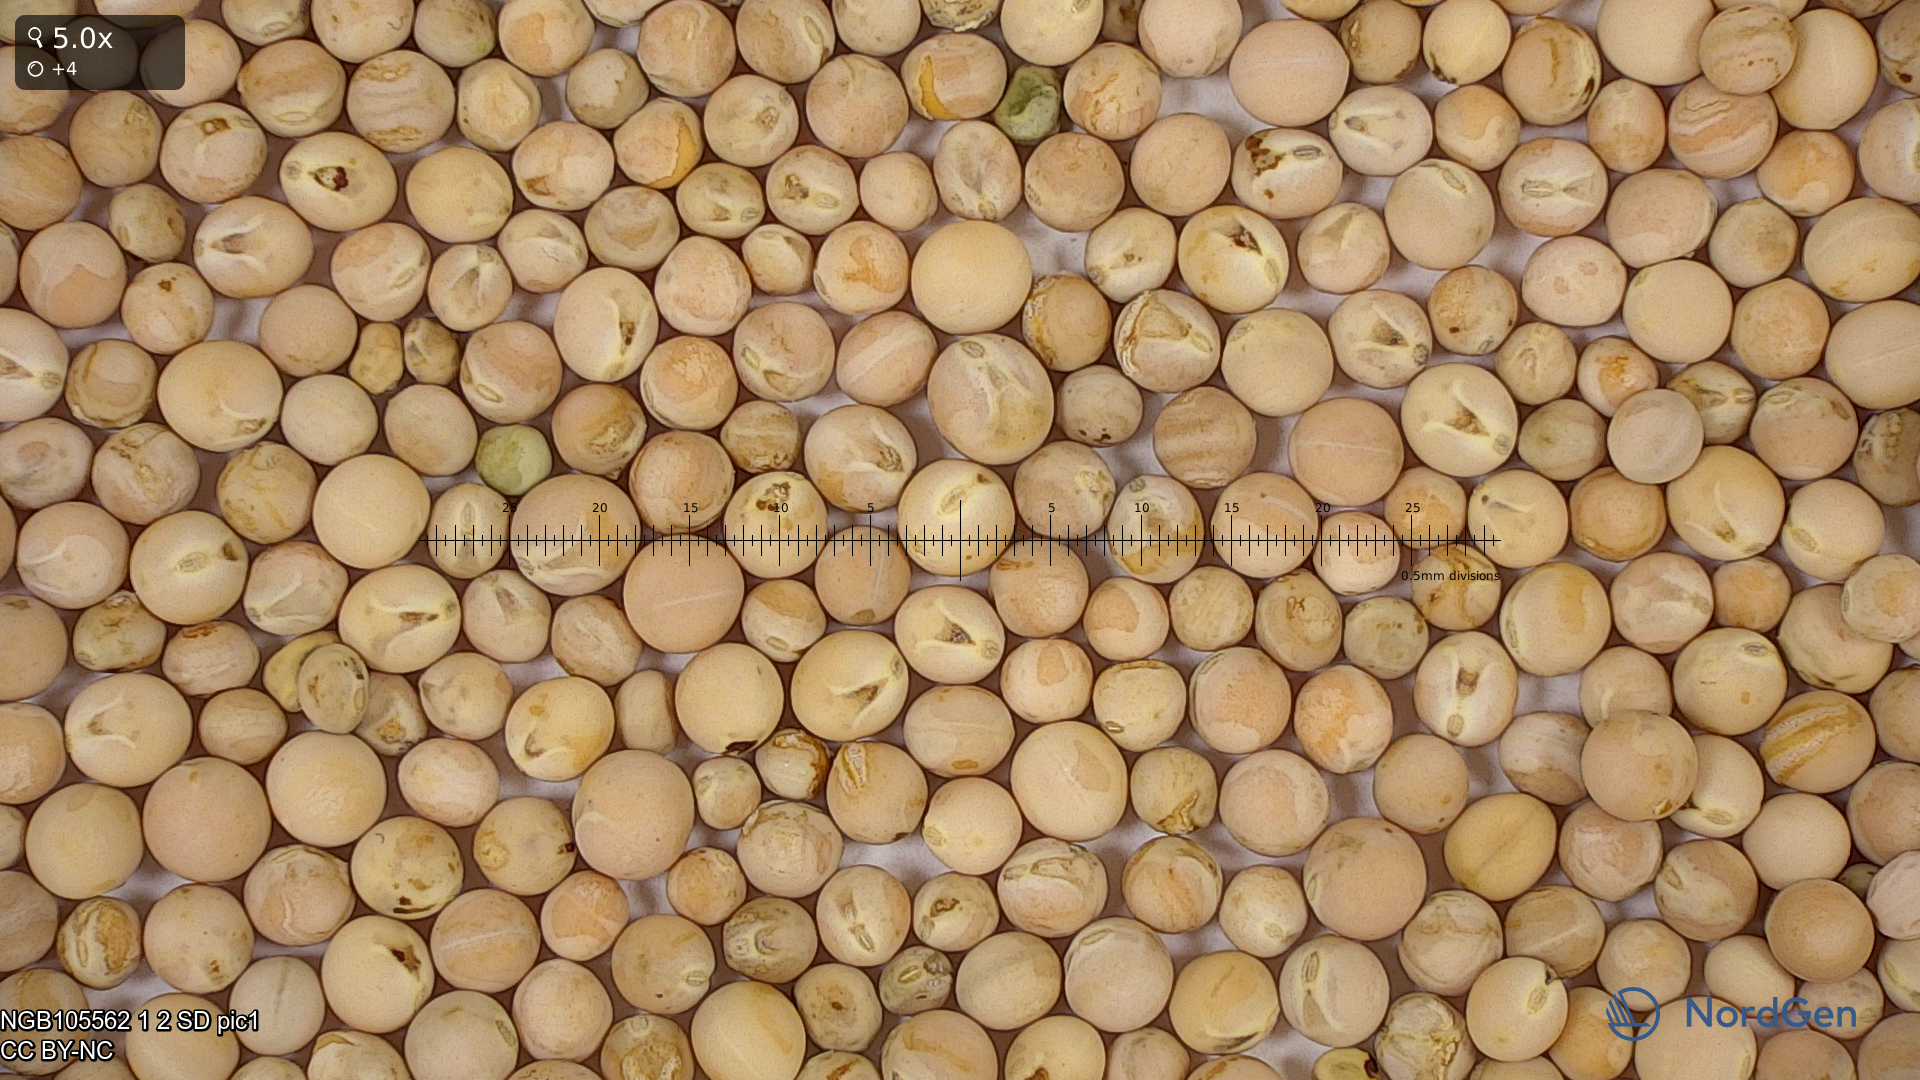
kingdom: Plantae
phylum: Tracheophyta
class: Magnoliopsida
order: Fabales
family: Fabaceae
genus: Lathyrus
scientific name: Lathyrus oleraceus
